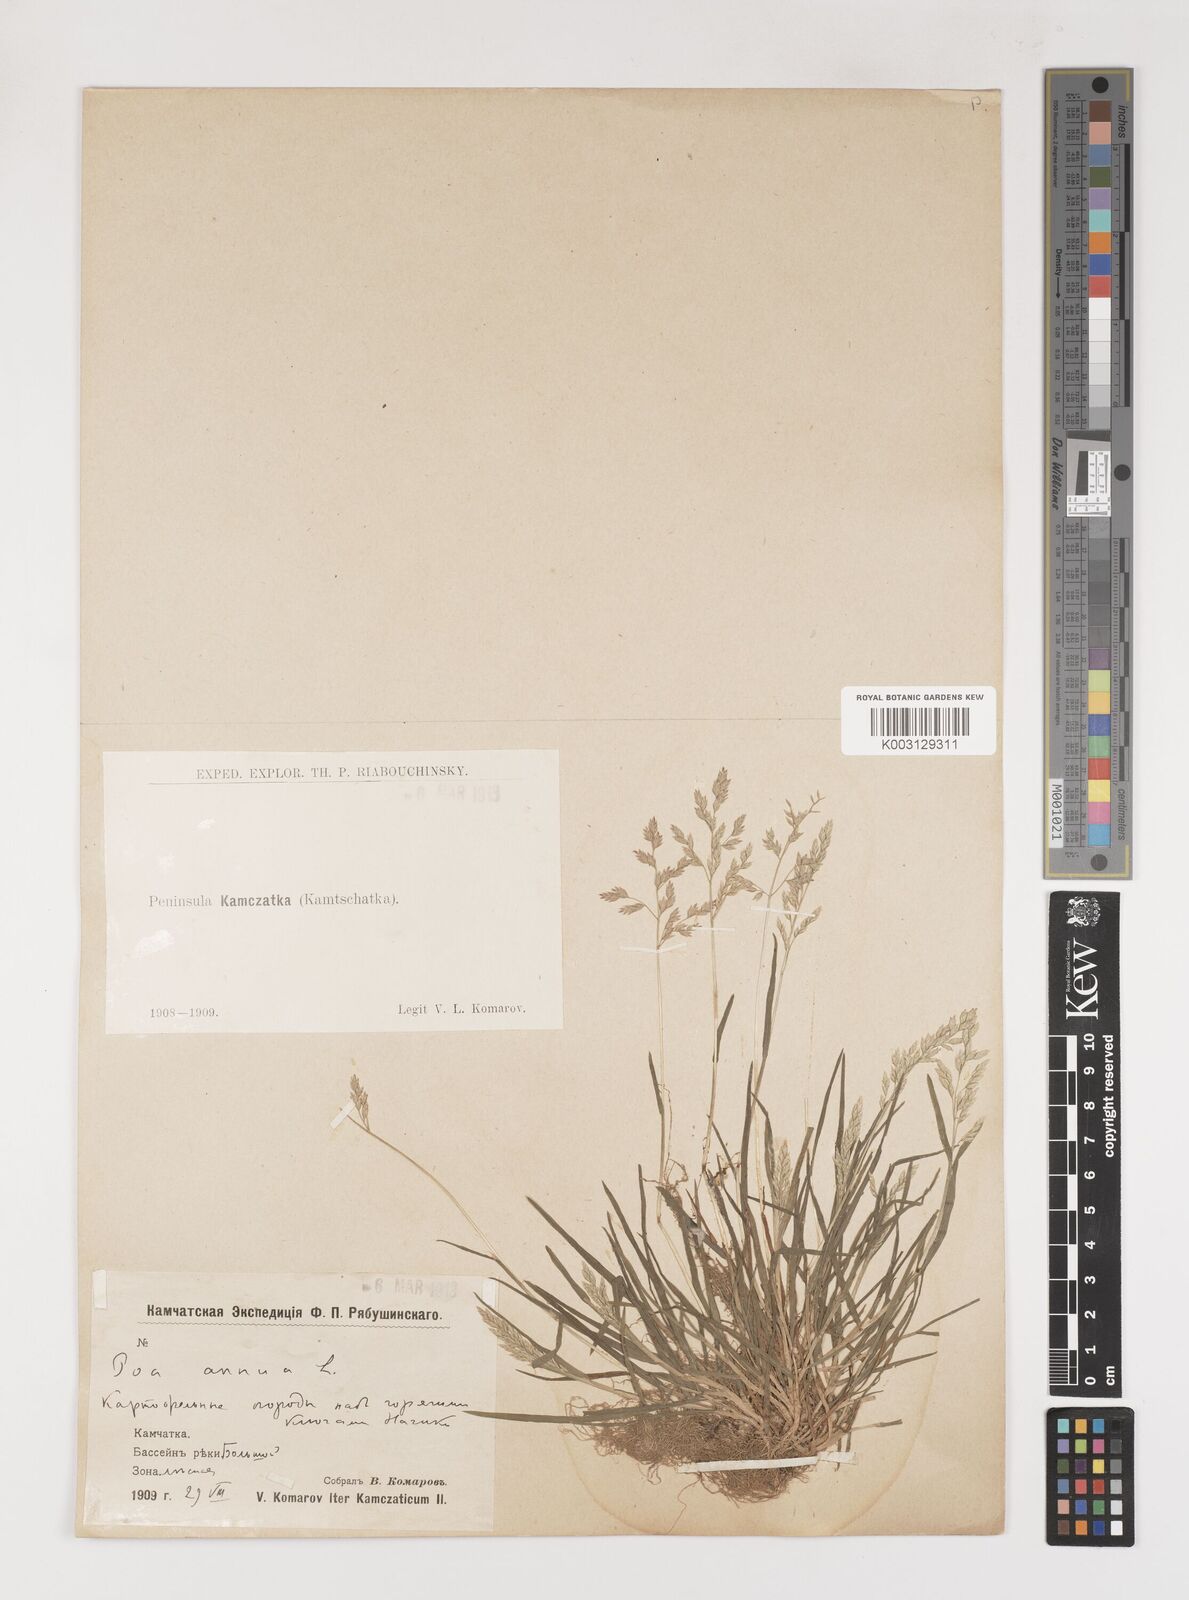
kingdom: Plantae
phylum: Tracheophyta
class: Liliopsida
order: Poales
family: Poaceae
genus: Poa
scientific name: Poa annua
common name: Annual bluegrass
